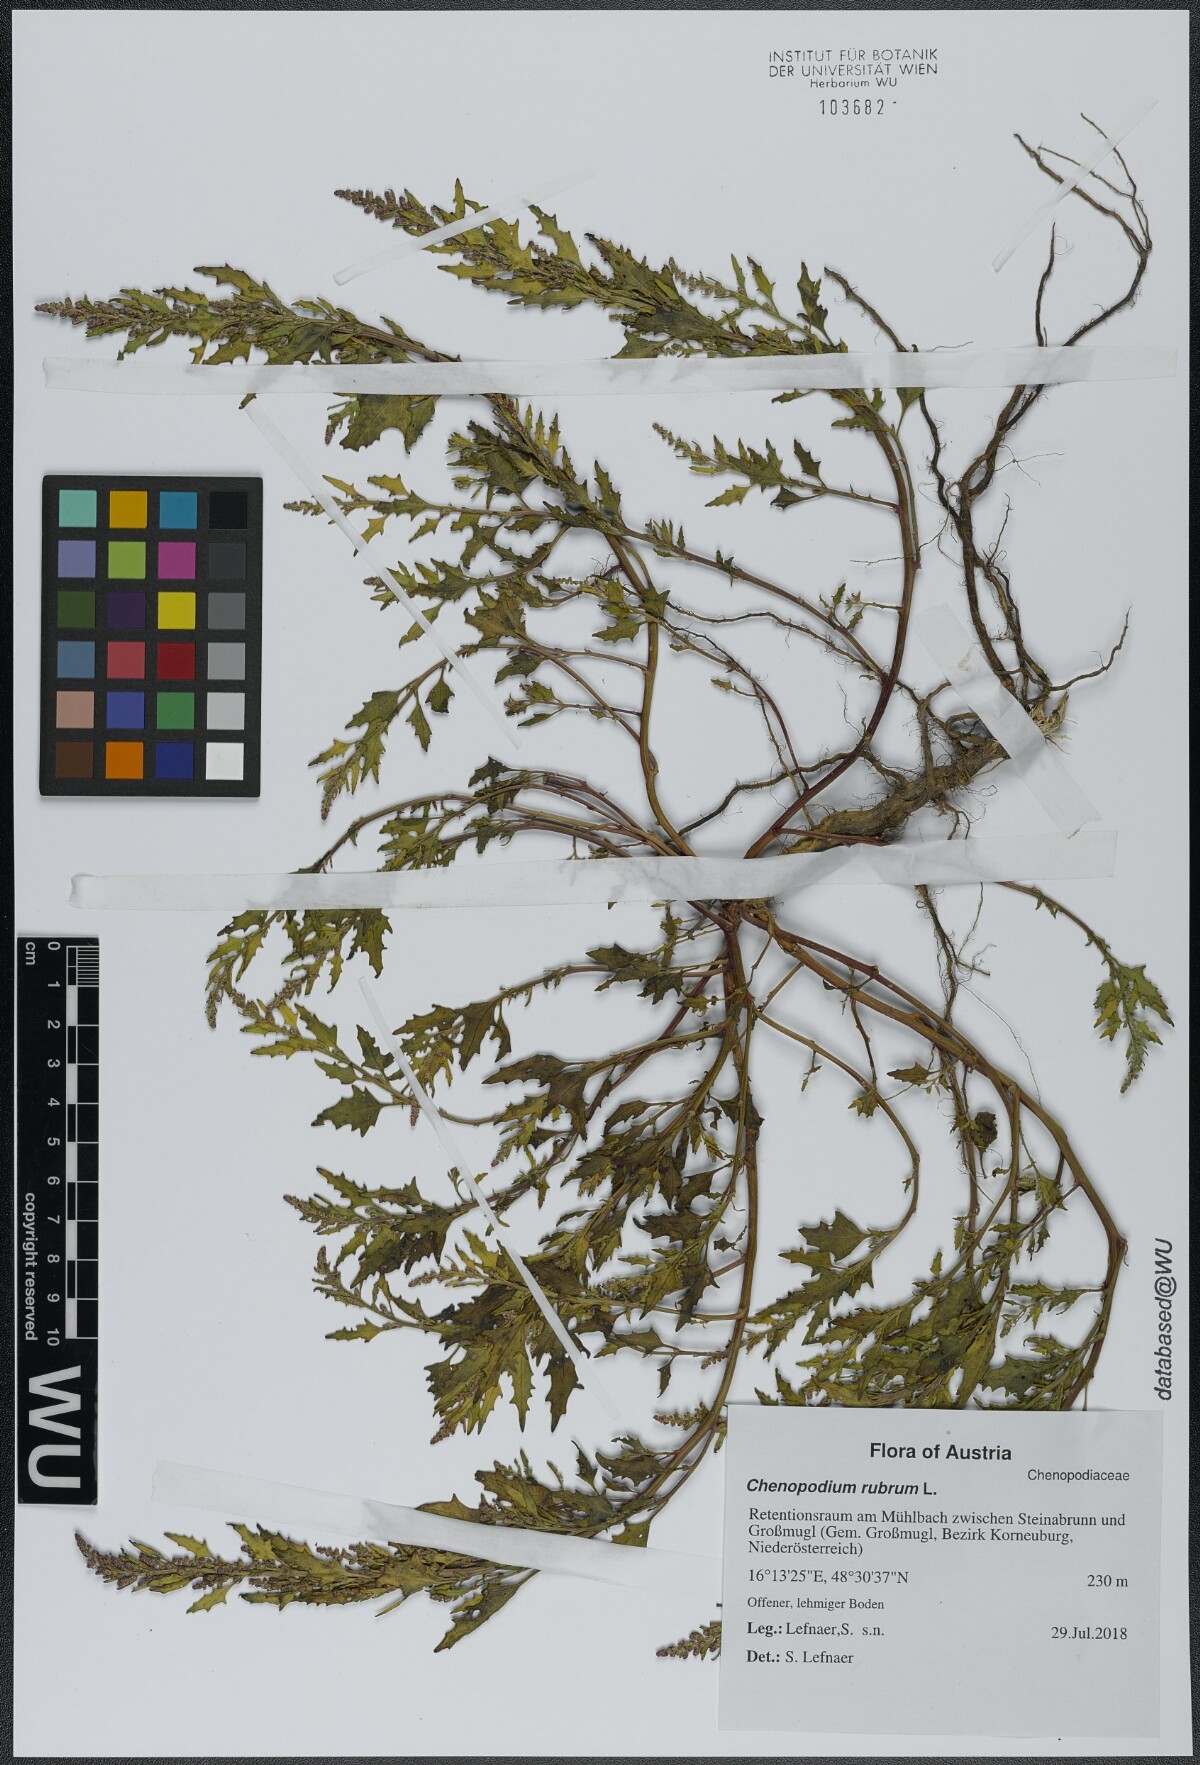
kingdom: Plantae
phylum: Tracheophyta
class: Magnoliopsida
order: Caryophyllales
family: Amaranthaceae
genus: Oxybasis
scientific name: Oxybasis rubra
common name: Red goosefoot
